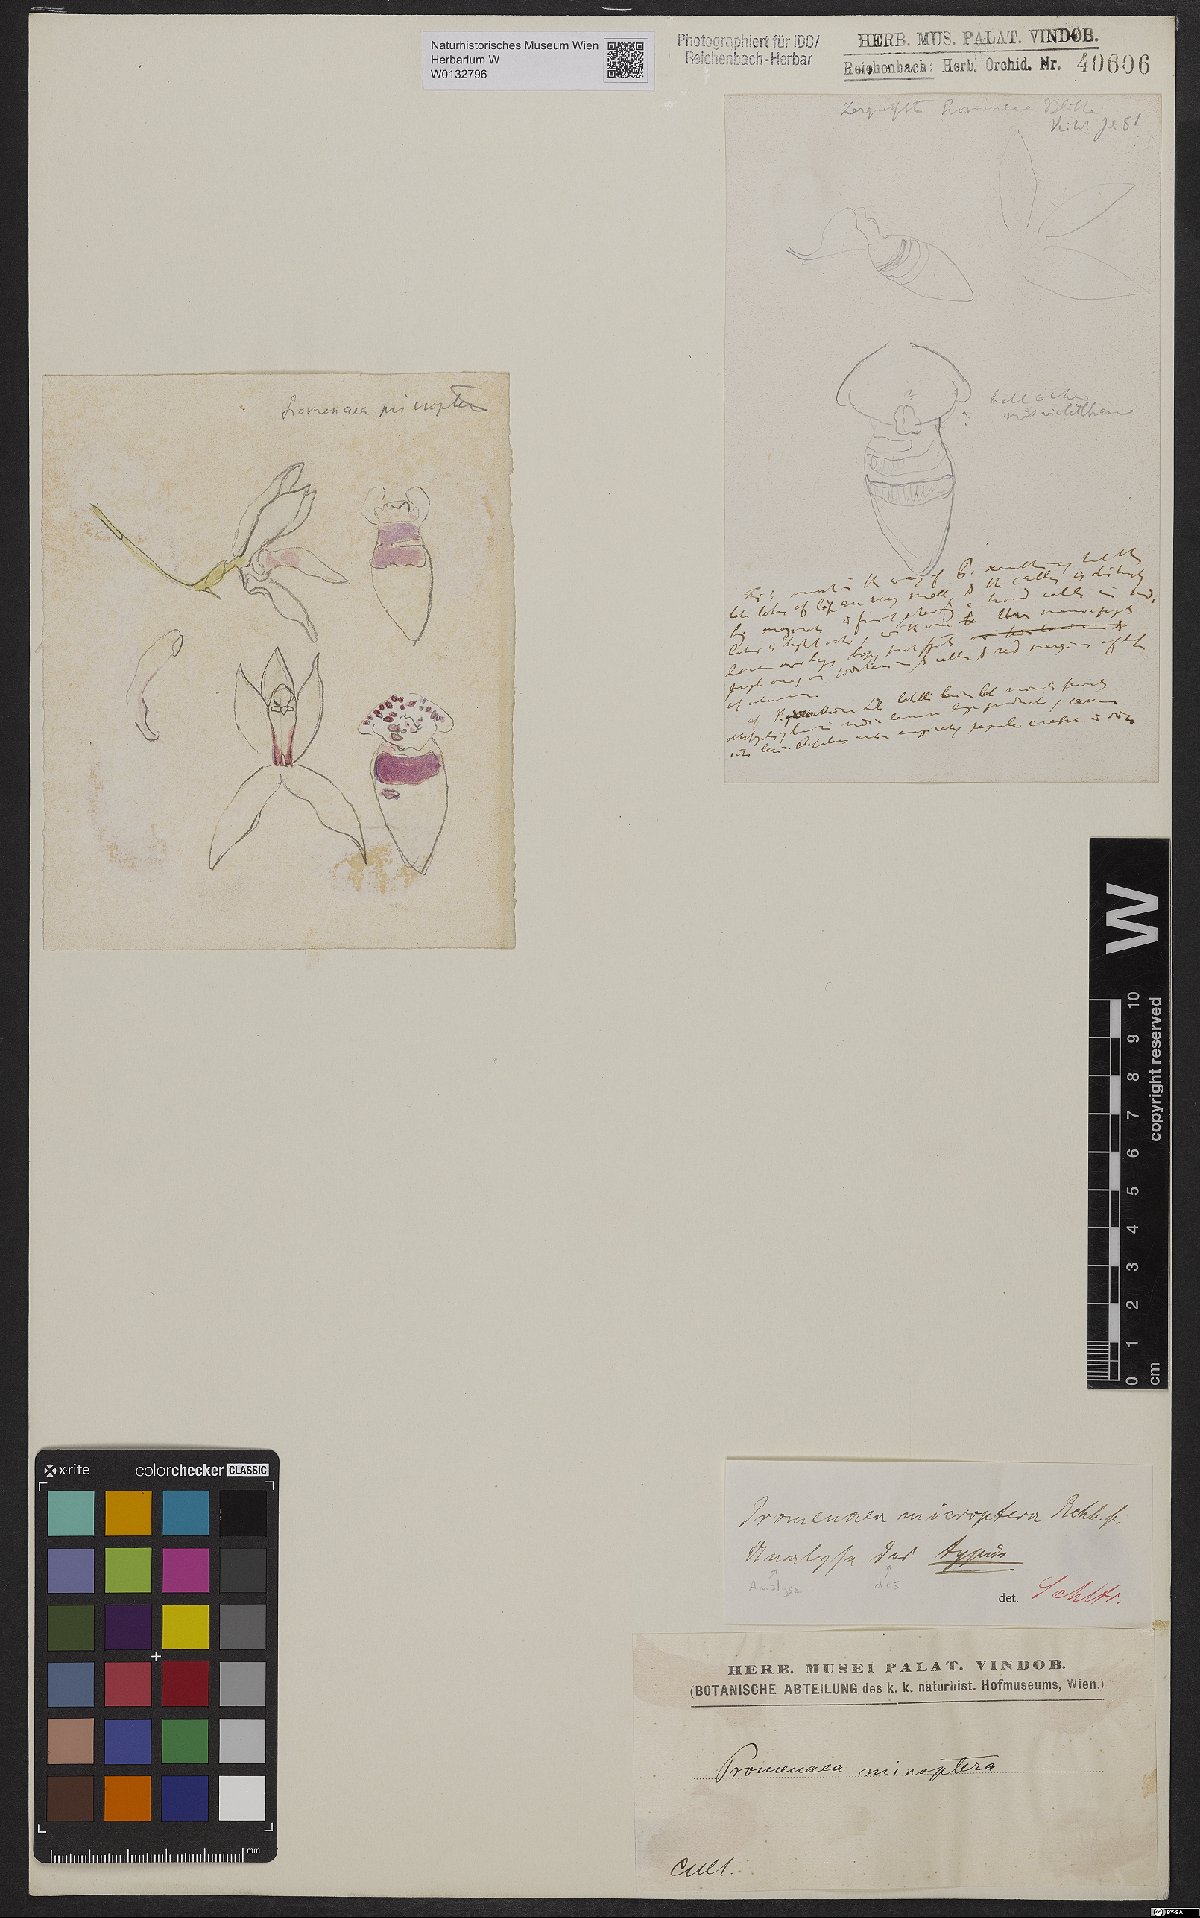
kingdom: Plantae
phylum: Tracheophyta
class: Liliopsida
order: Asparagales
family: Orchidaceae
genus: Promenaea
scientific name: Promenaea microptera
